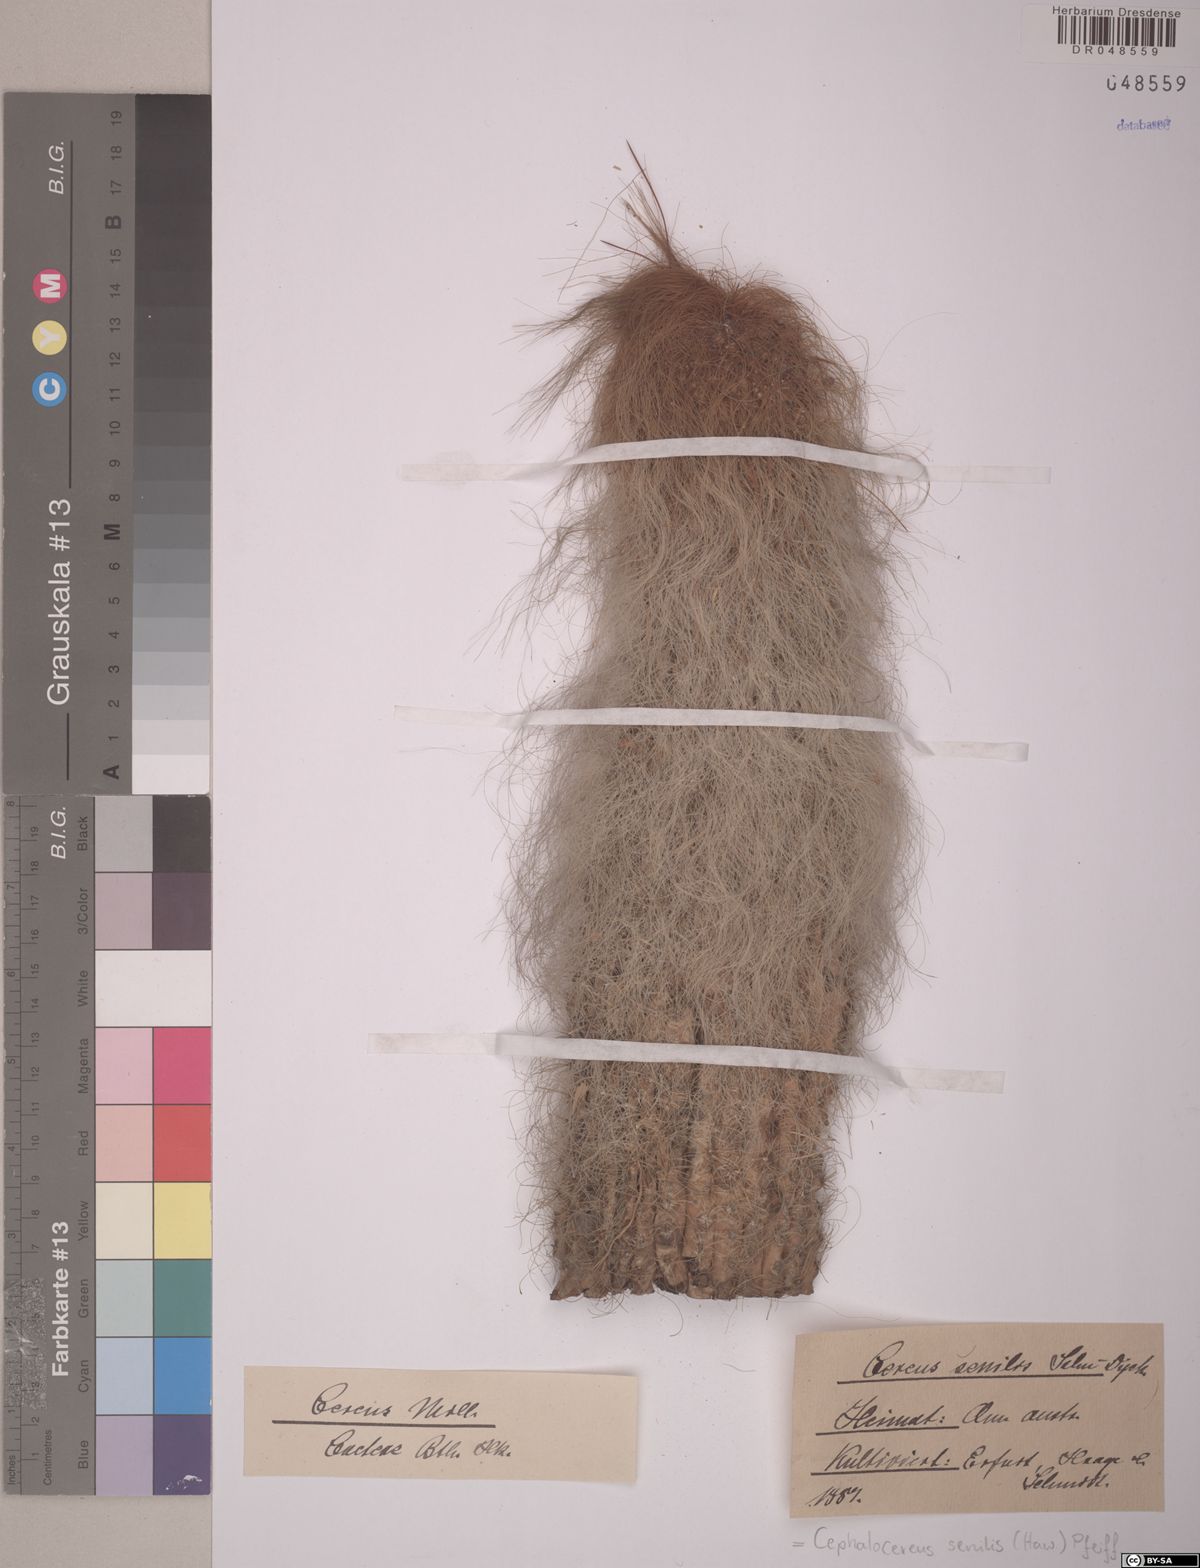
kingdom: Plantae
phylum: Tracheophyta
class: Magnoliopsida
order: Caryophyllales
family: Cactaceae
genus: Cephalocereus
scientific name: Cephalocereus senilis
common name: Old man cactus
